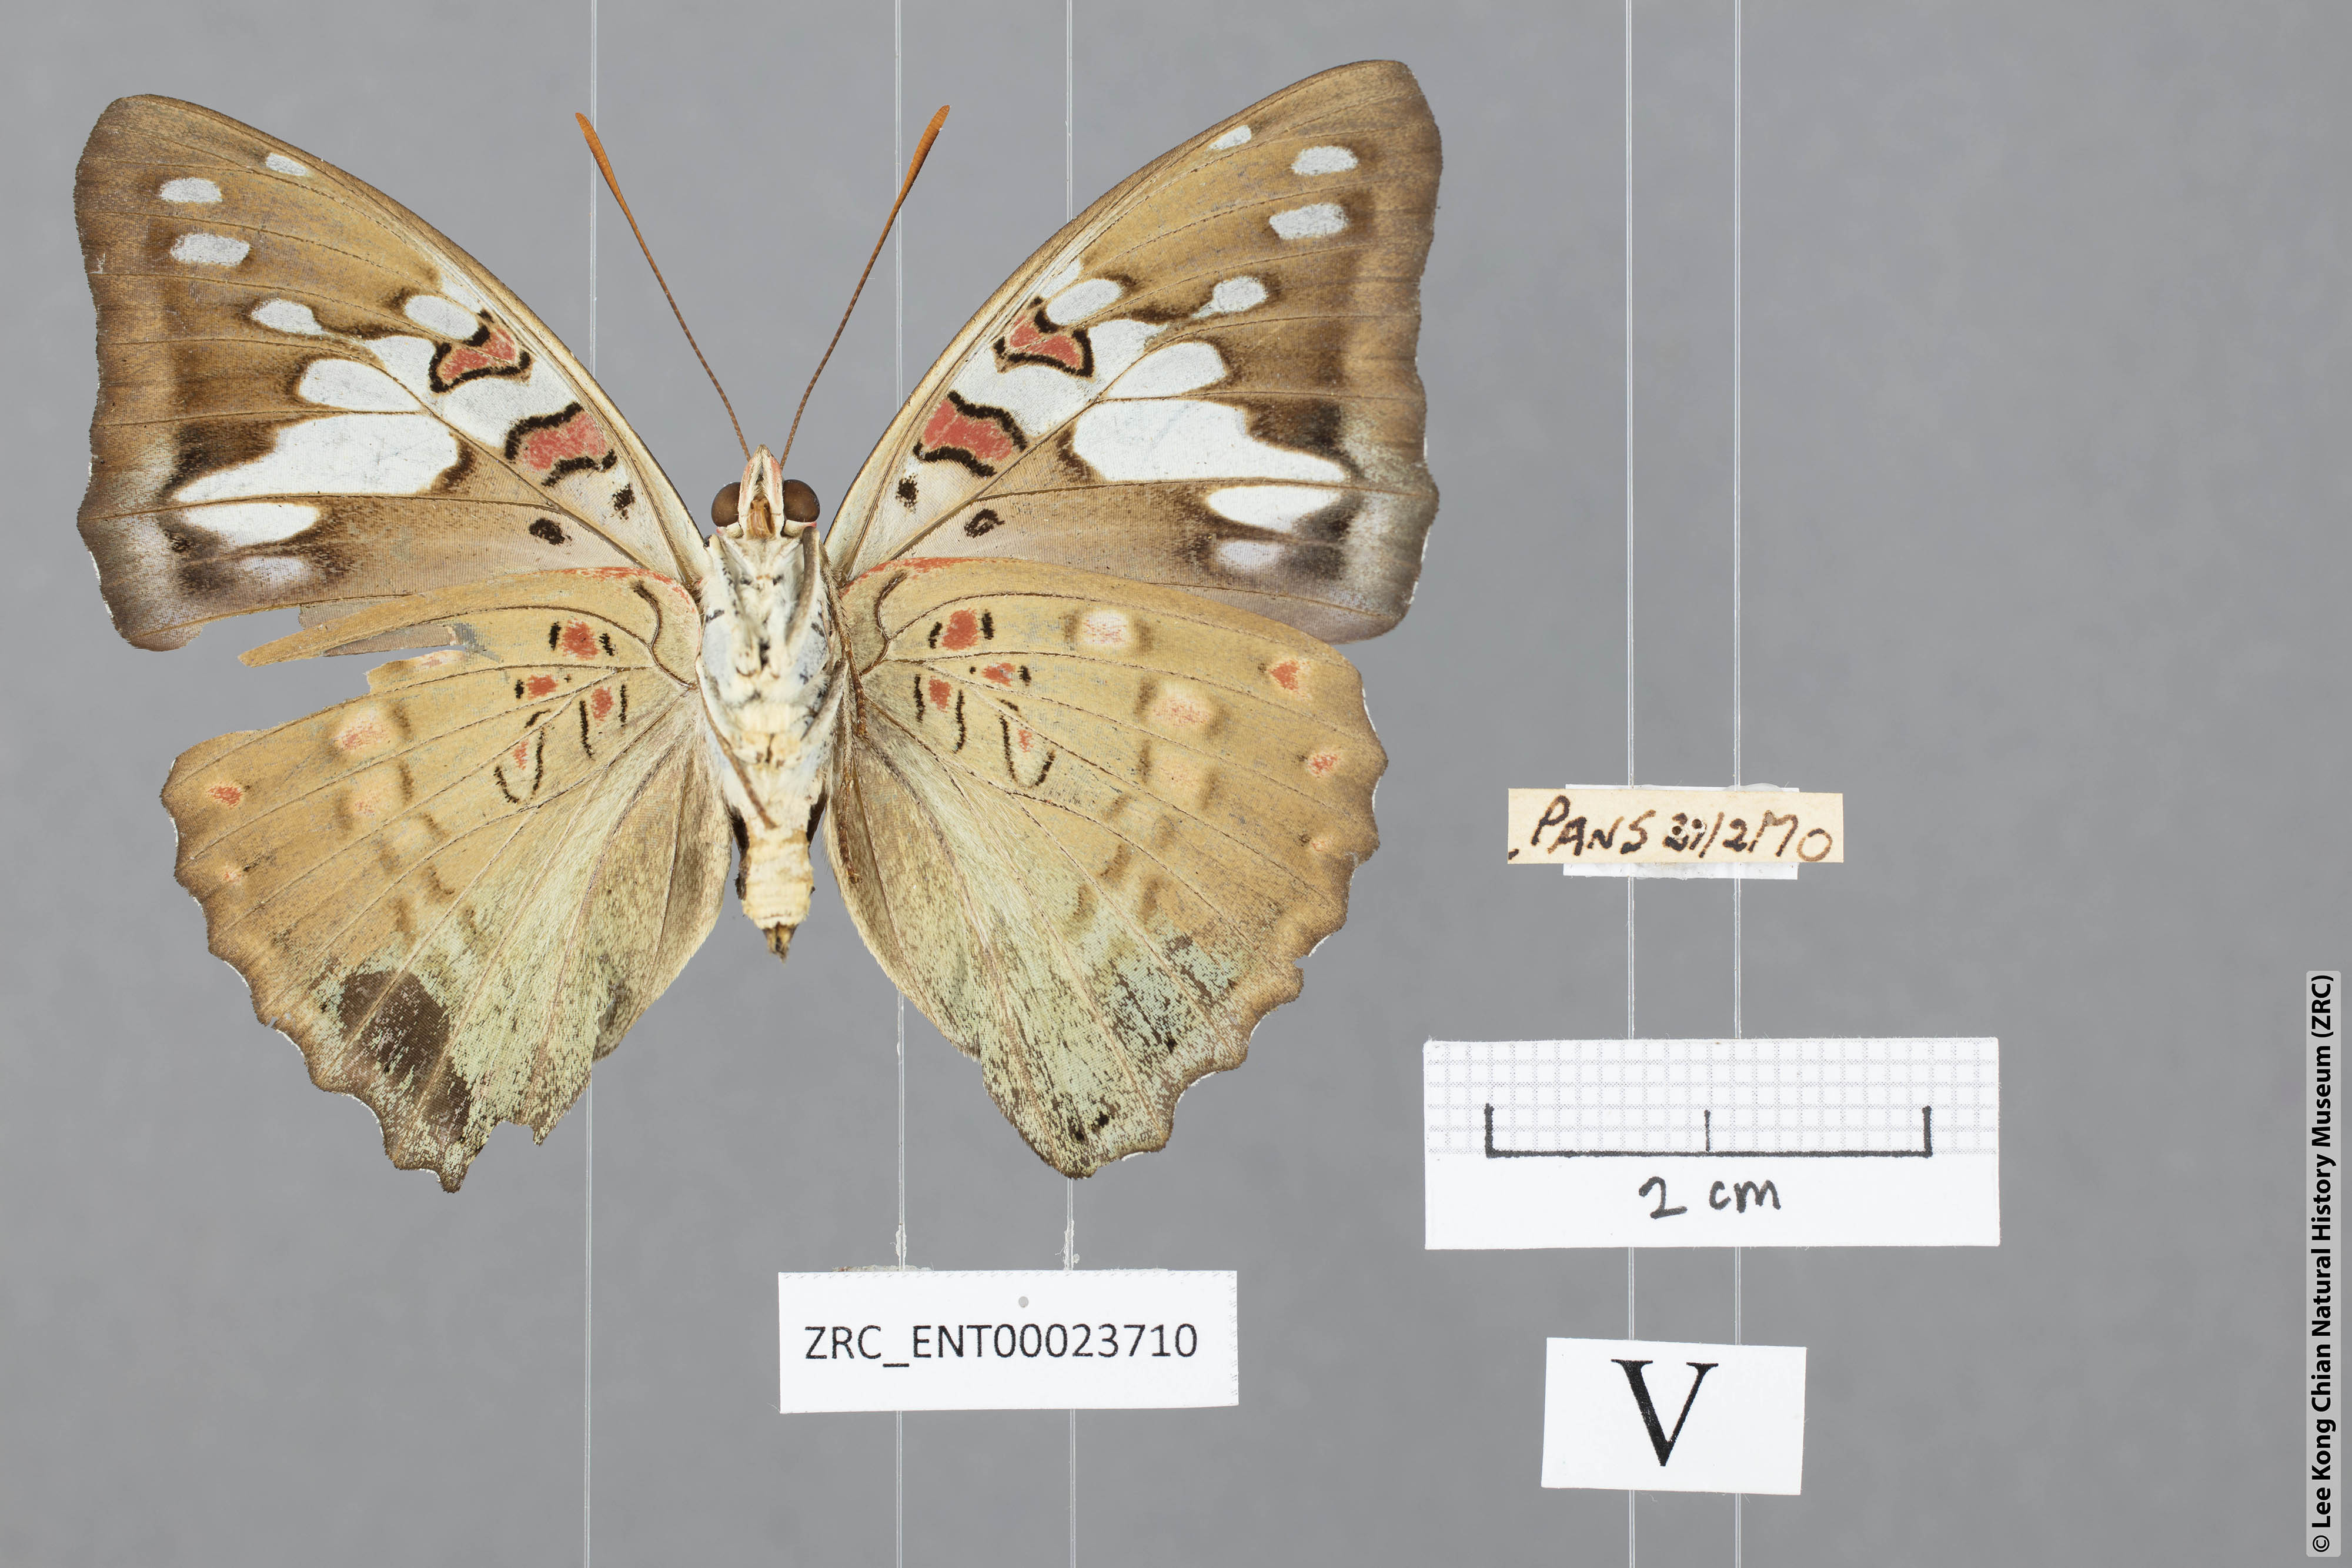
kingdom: Animalia
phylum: Arthropoda
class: Insecta
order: Lepidoptera
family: Nymphalidae
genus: Euthalia
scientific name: Euthalia malaccana
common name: Fruhstorfer's baron
